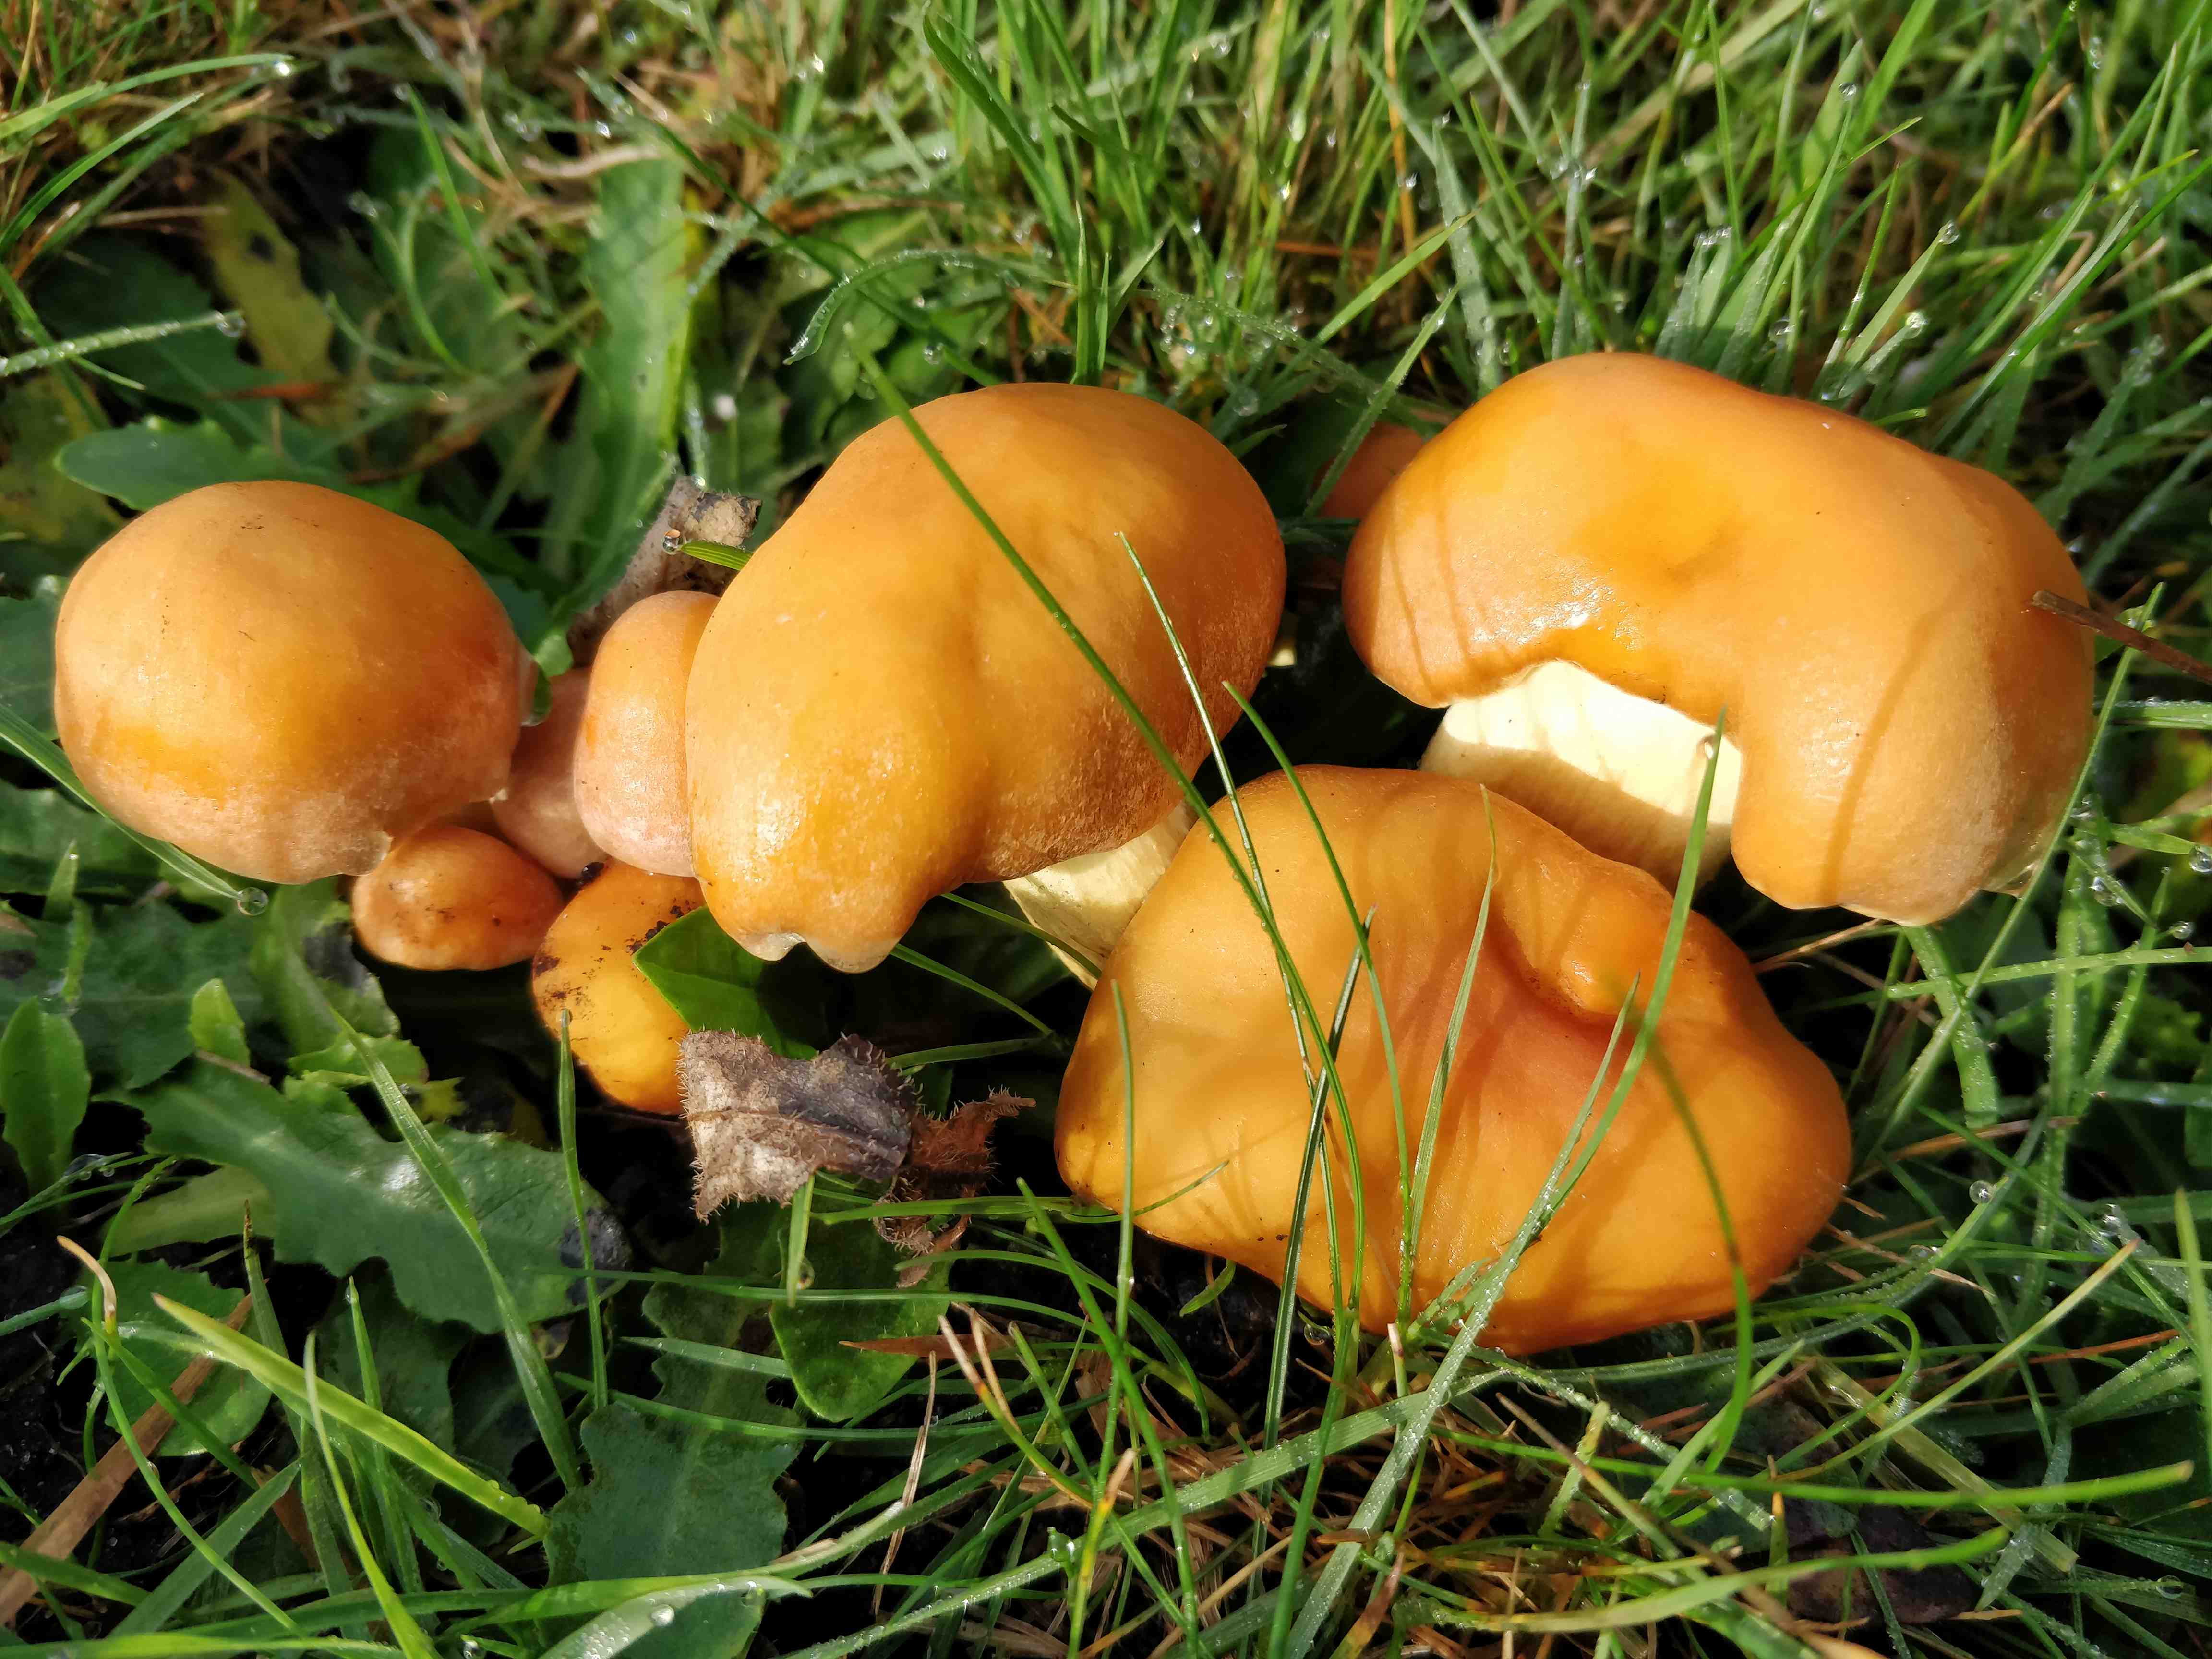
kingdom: Fungi
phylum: Basidiomycota
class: Agaricomycetes
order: Agaricales
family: Strophariaceae
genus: Hypholoma
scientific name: Hypholoma fasciculare
